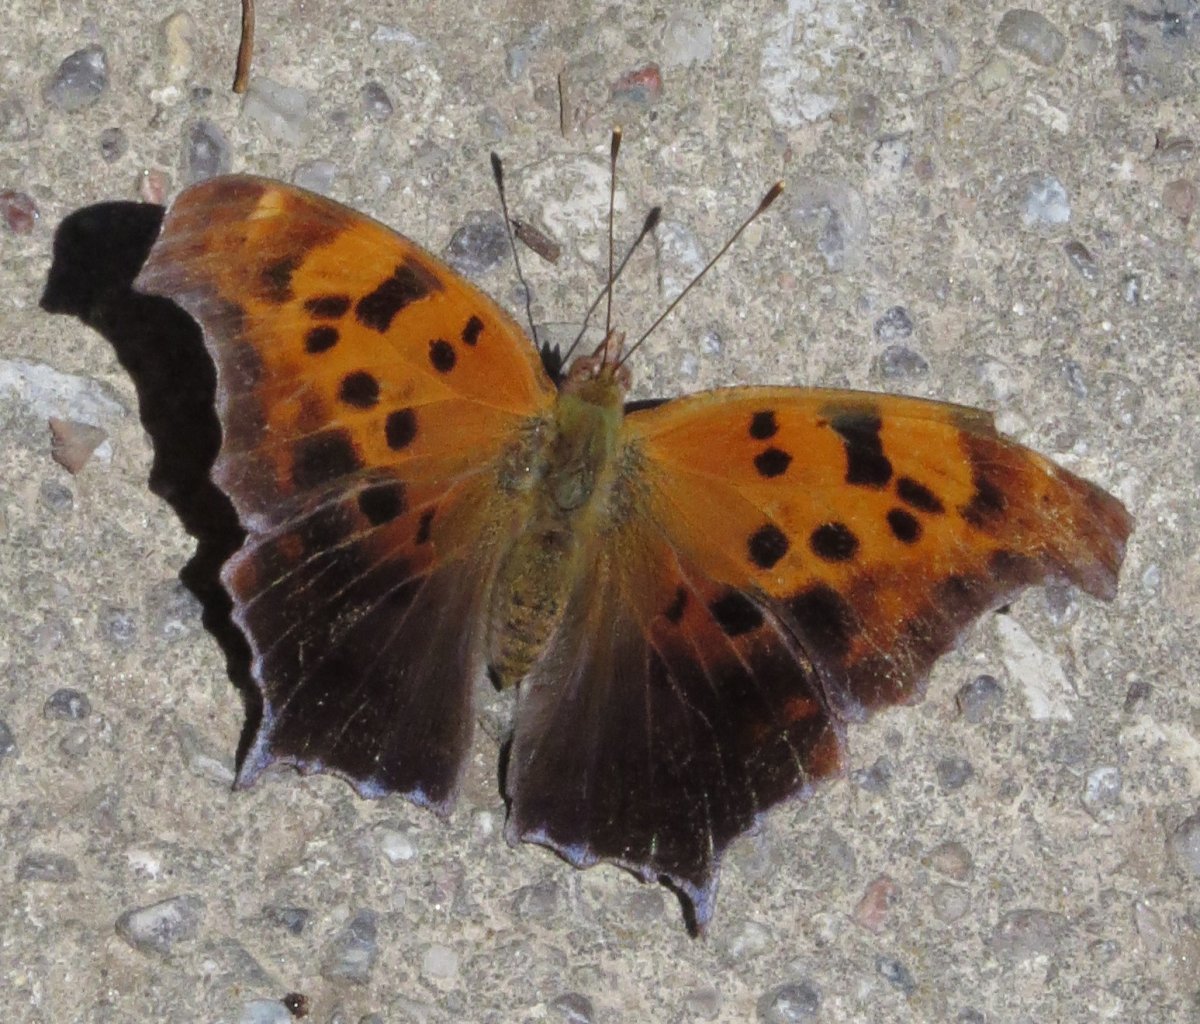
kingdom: Animalia
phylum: Arthropoda
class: Insecta
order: Lepidoptera
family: Nymphalidae
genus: Polygonia
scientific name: Polygonia interrogationis
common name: Question Mark
